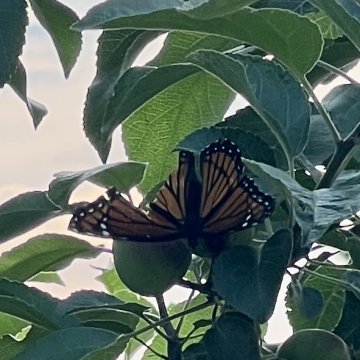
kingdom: Animalia
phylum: Arthropoda
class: Insecta
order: Lepidoptera
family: Nymphalidae
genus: Limenitis
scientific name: Limenitis archippus
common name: Viceroy
